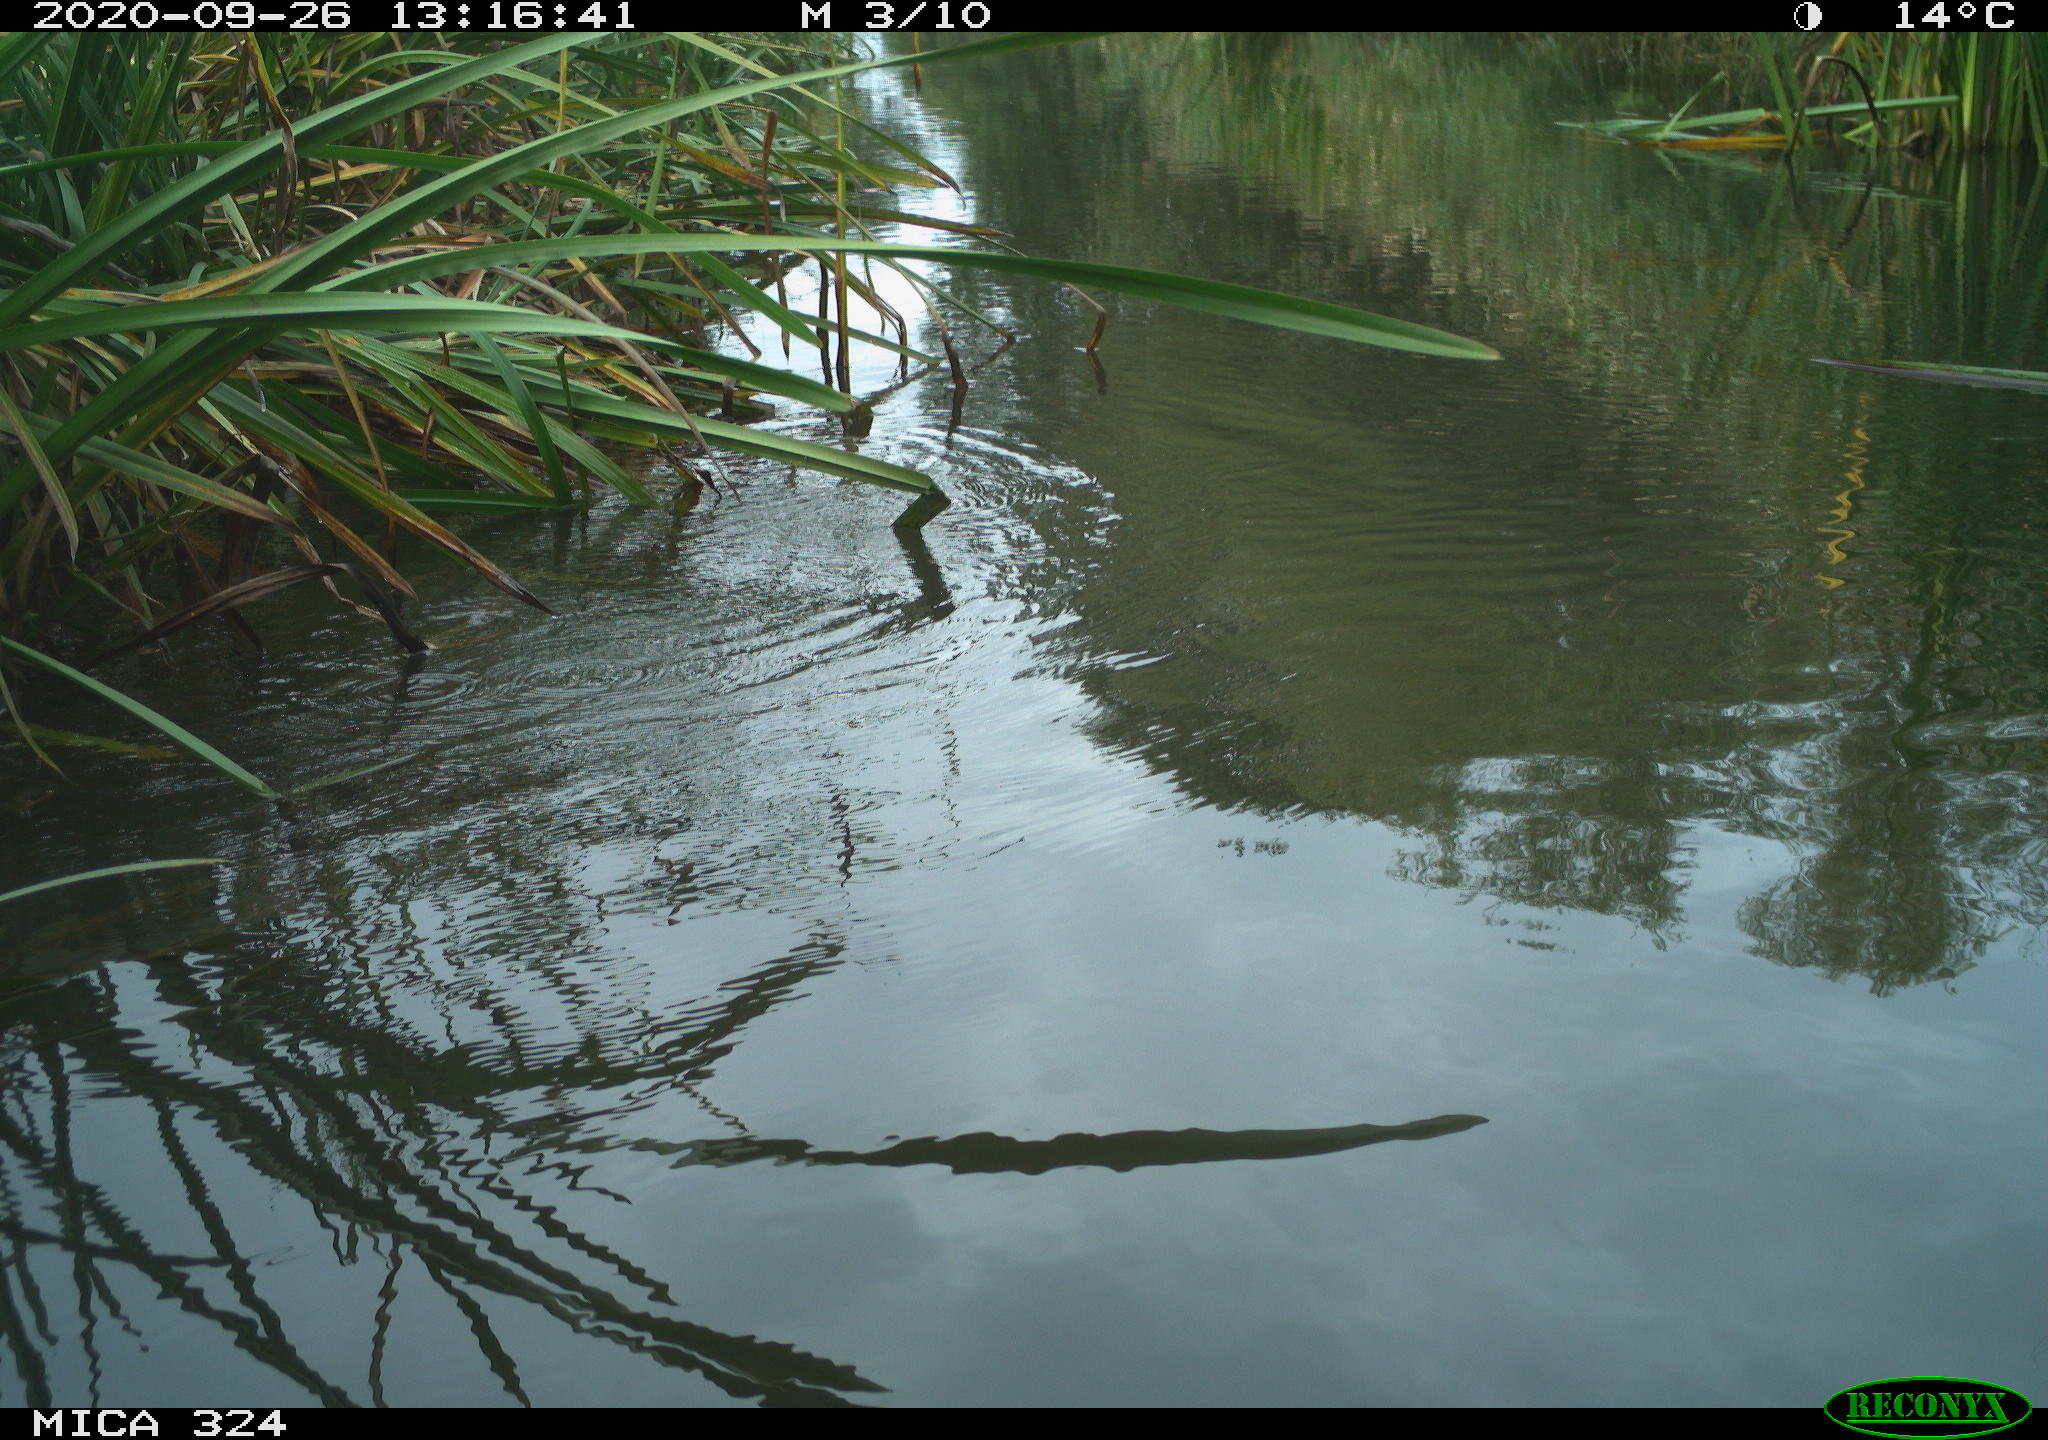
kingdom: Animalia
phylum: Chordata
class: Aves
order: Gruiformes
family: Rallidae
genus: Gallinula
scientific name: Gallinula chloropus
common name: Common moorhen
